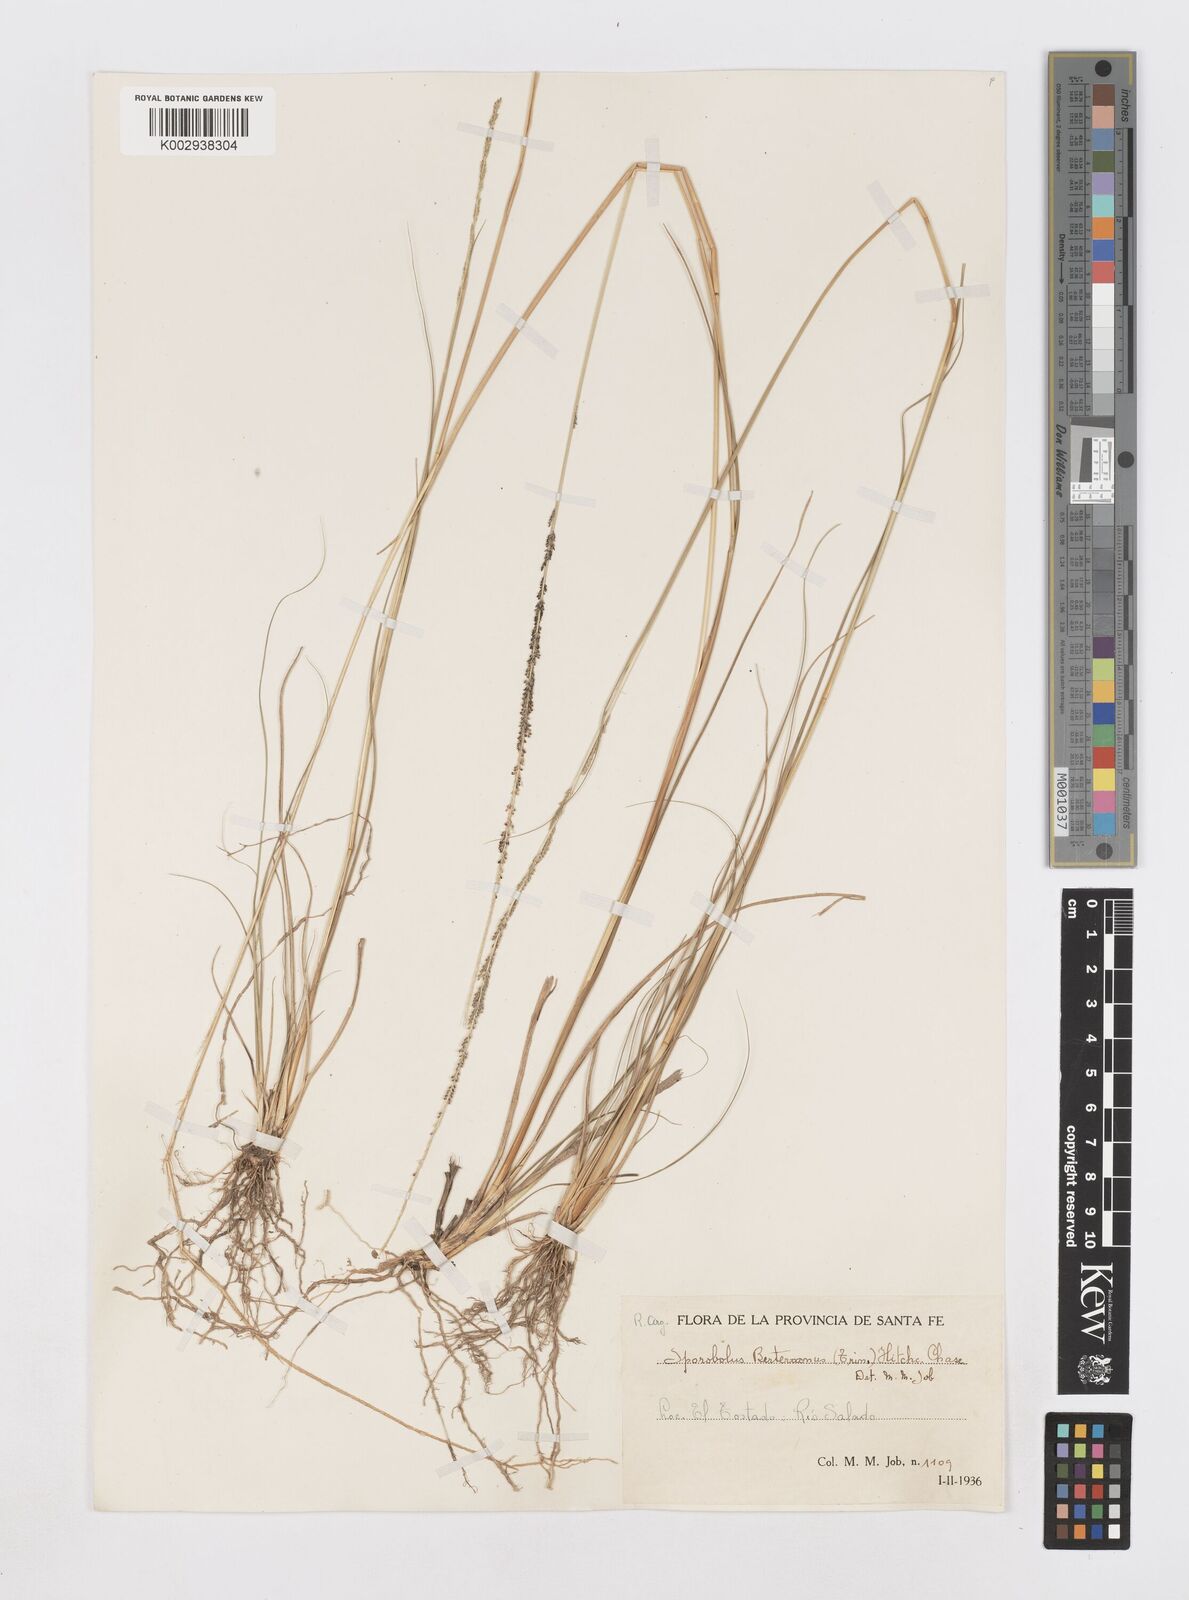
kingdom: Plantae
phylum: Tracheophyta
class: Liliopsida
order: Poales
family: Poaceae
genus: Sporobolus
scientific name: Sporobolus indicus
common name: Smut grass
